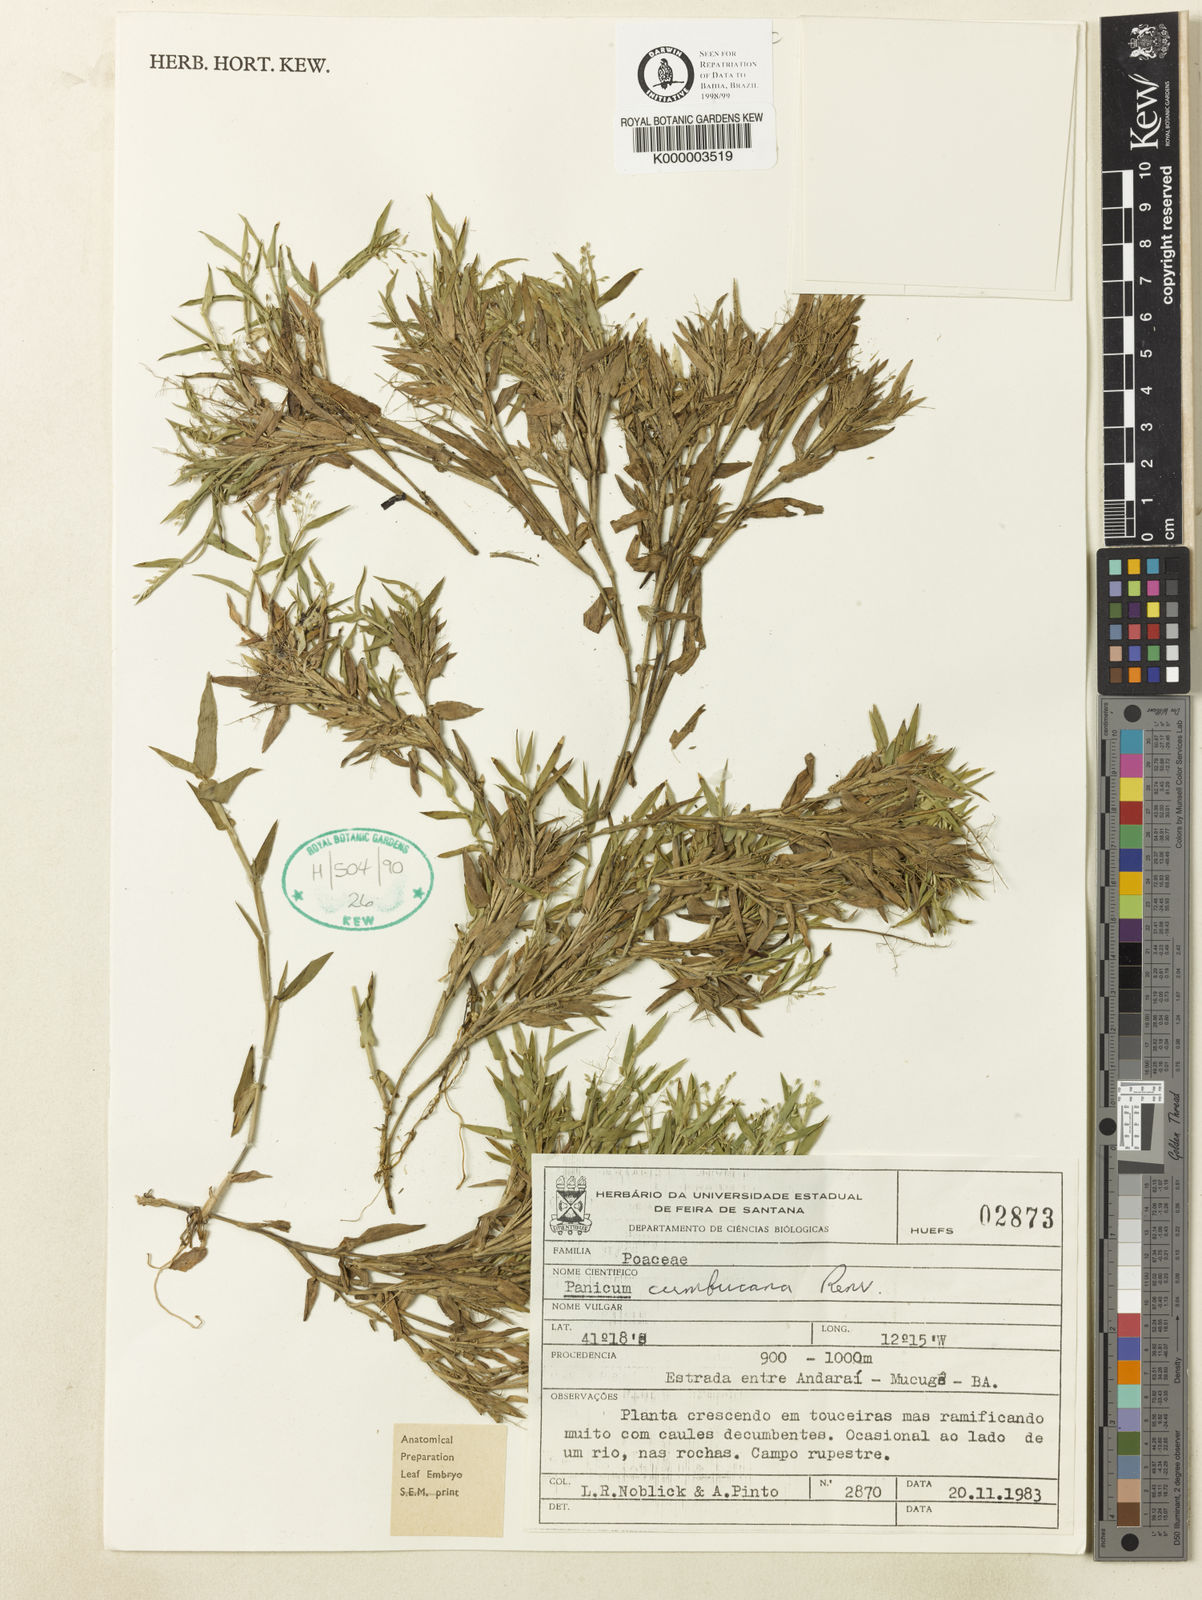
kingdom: Plantae
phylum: Tracheophyta
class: Liliopsida
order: Poales
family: Poaceae
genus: Dichanthelium
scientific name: Dichanthelium cumbucanum
